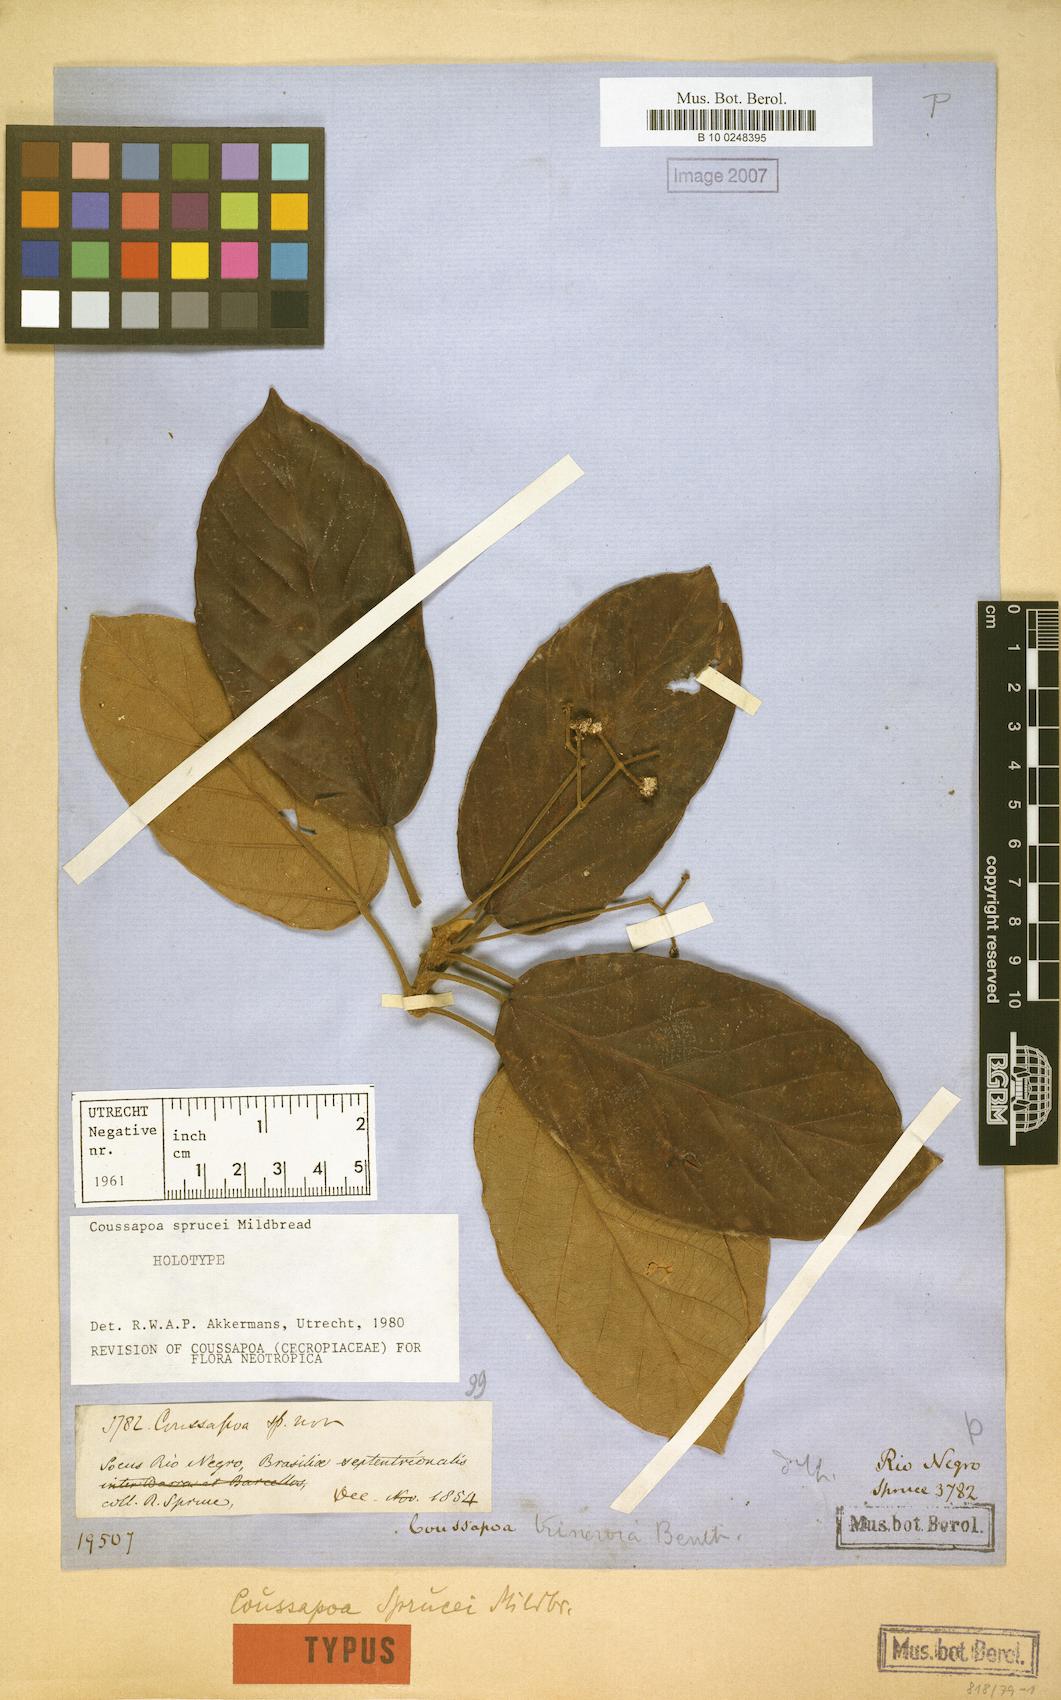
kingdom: Plantae
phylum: Tracheophyta
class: Magnoliopsida
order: Rosales
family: Urticaceae
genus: Coussapoa
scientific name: Coussapoa sprucei
